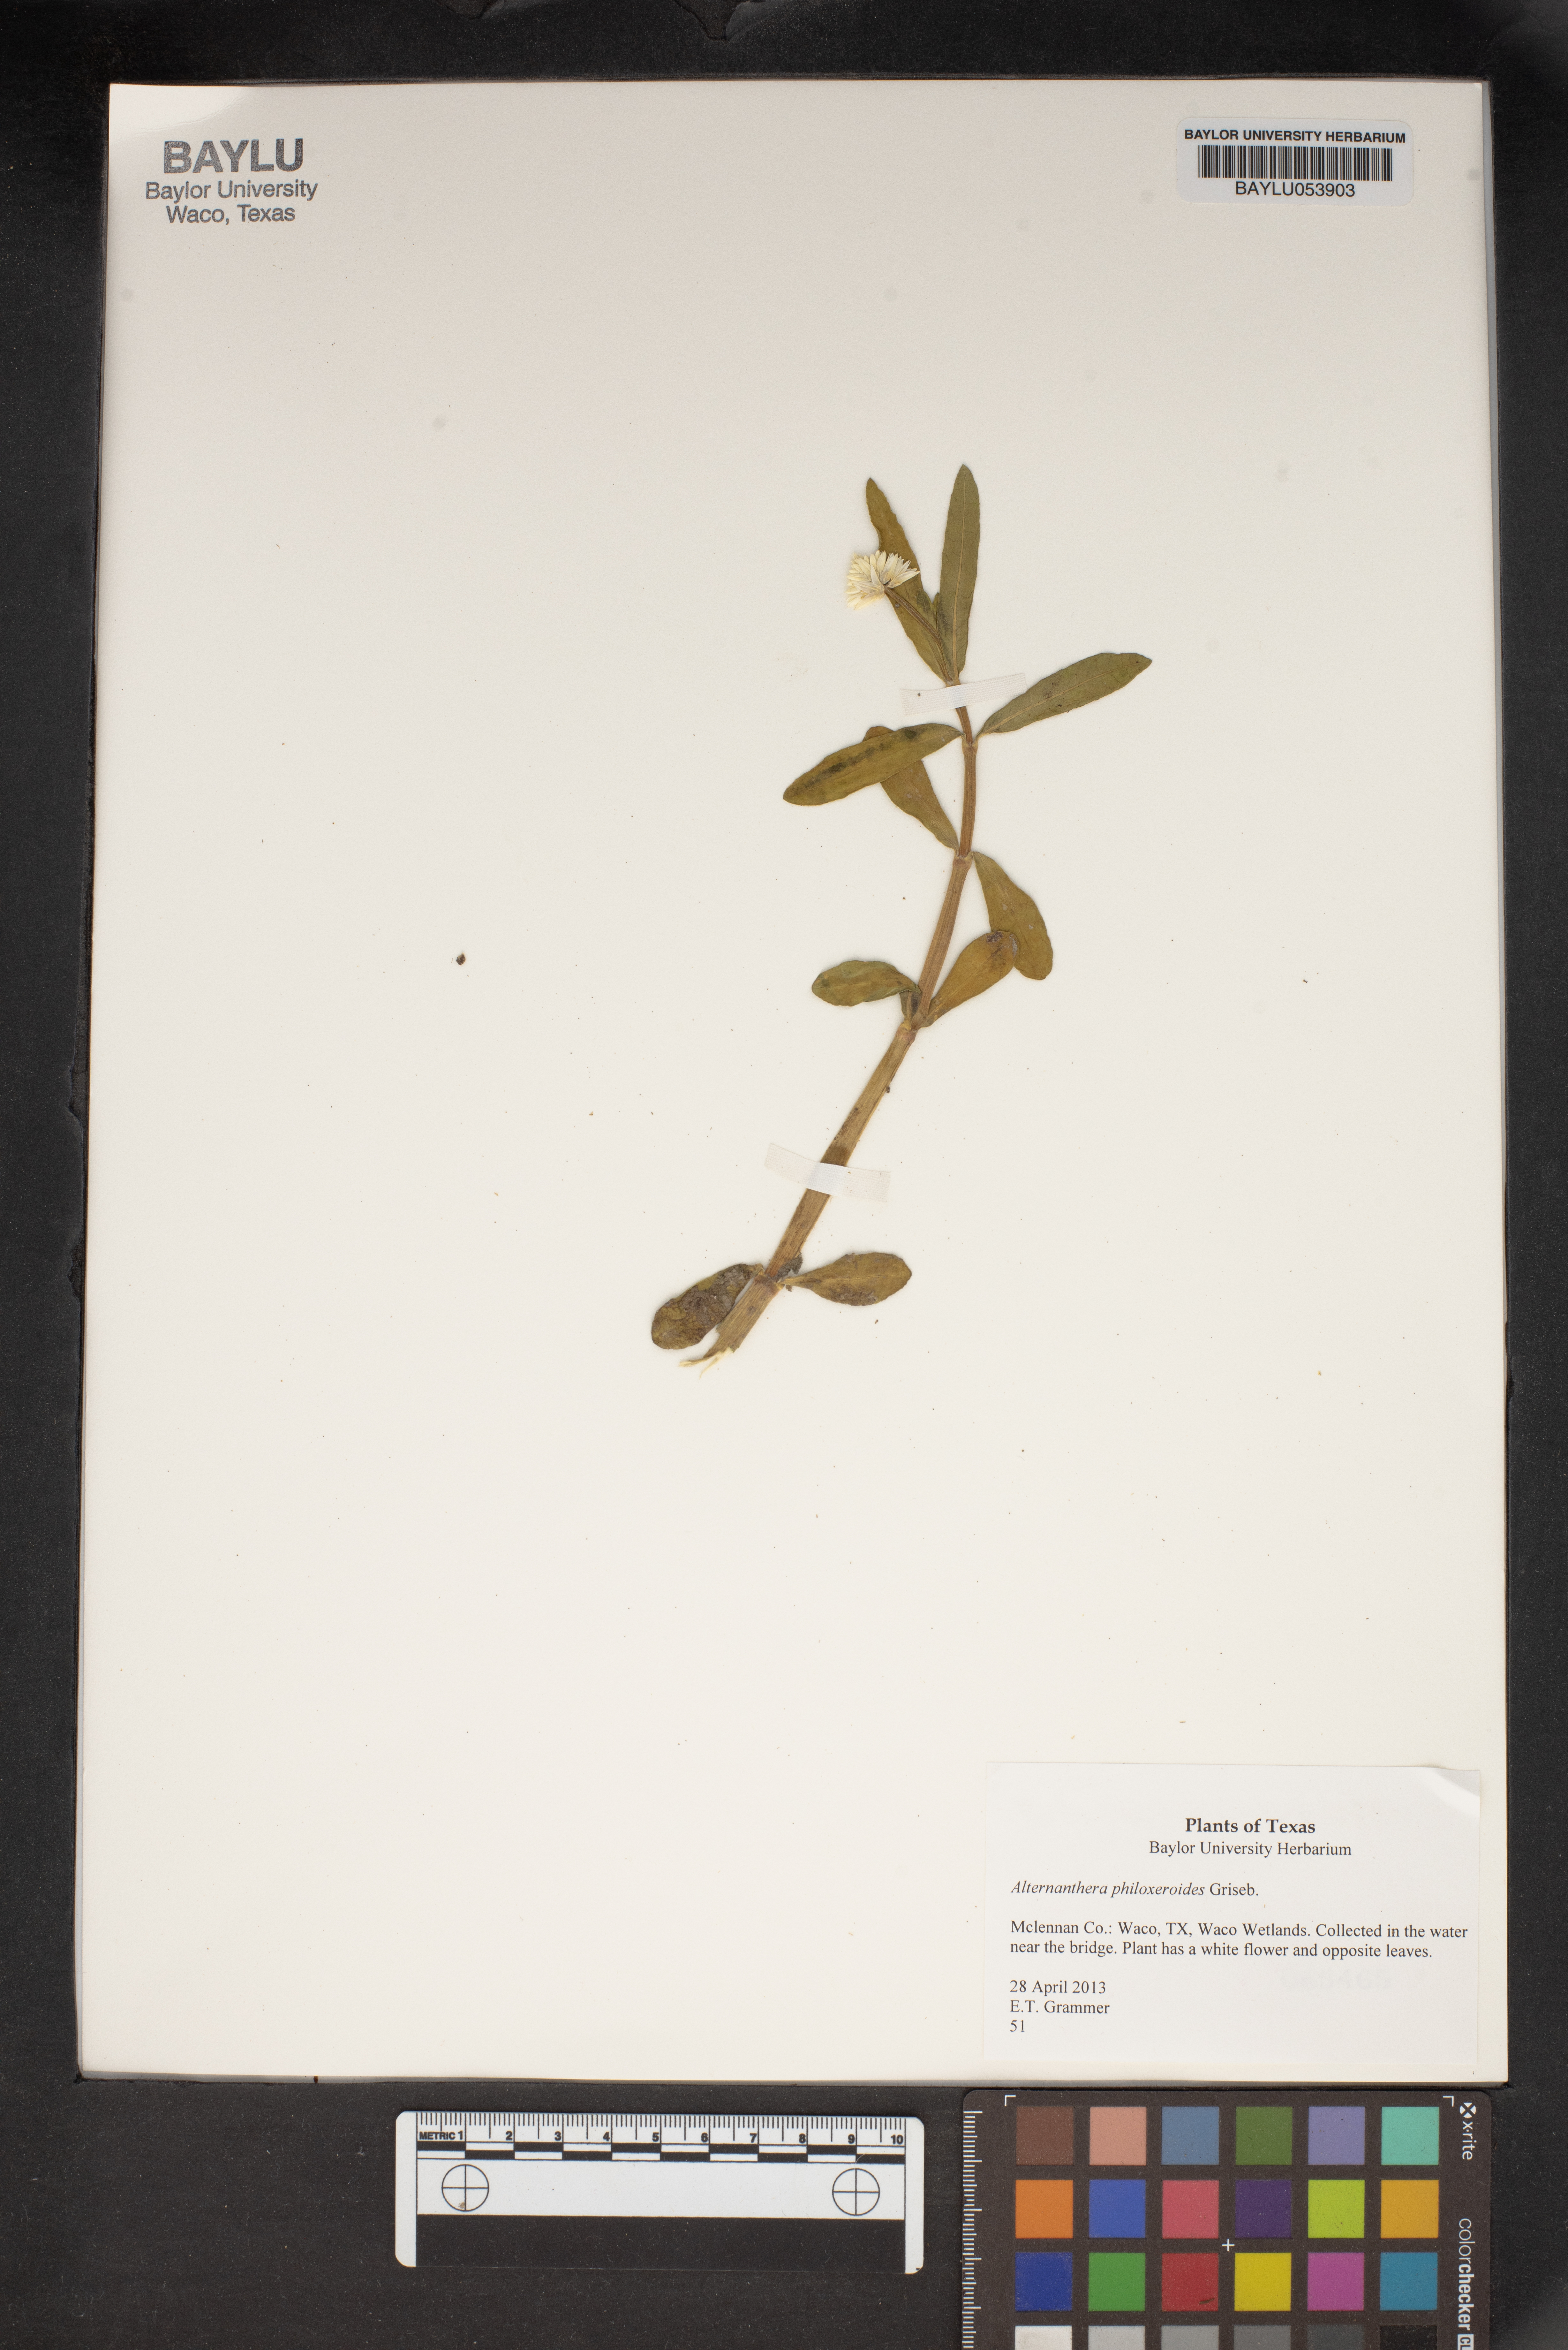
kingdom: Plantae
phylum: Tracheophyta
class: Magnoliopsida
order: Caryophyllales
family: Amaranthaceae
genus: Alternanthera
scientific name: Alternanthera philoxeroides
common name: Alligatorweed
